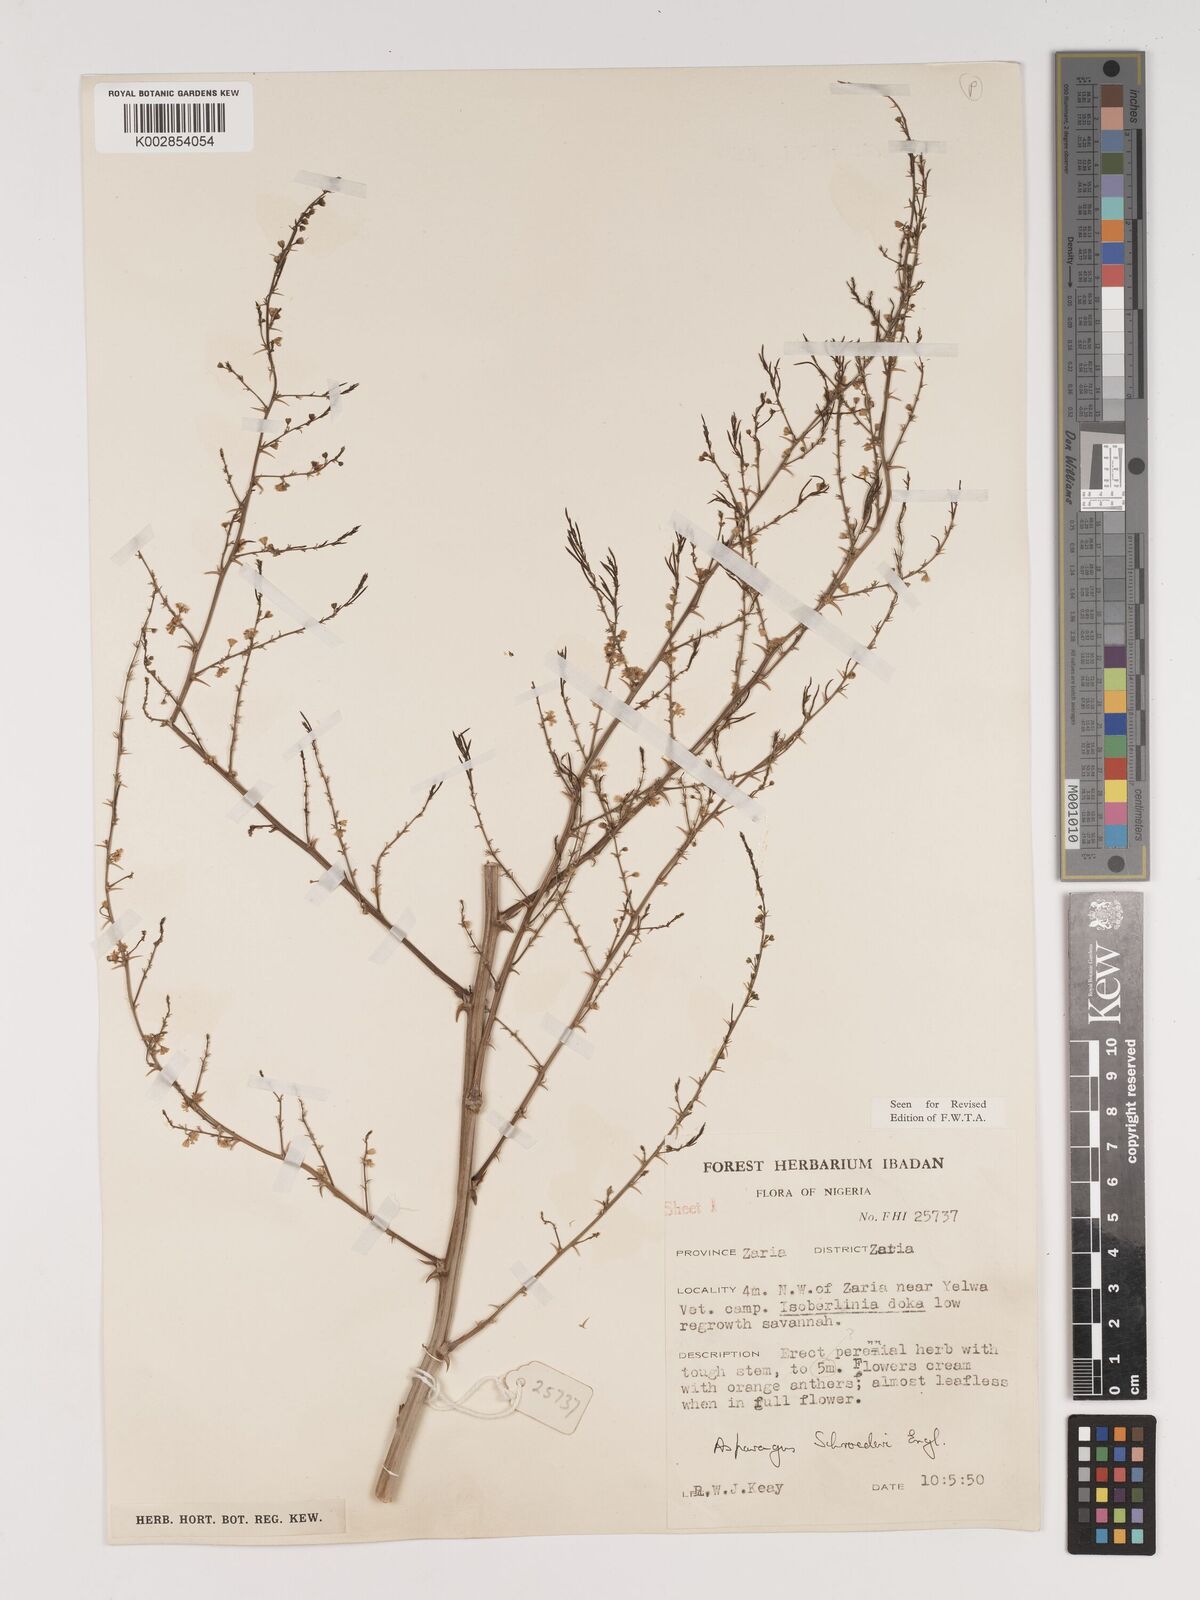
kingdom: Plantae
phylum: Tracheophyta
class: Liliopsida
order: Asparagales
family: Asparagaceae
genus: Asparagus
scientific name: Asparagus schroederi
